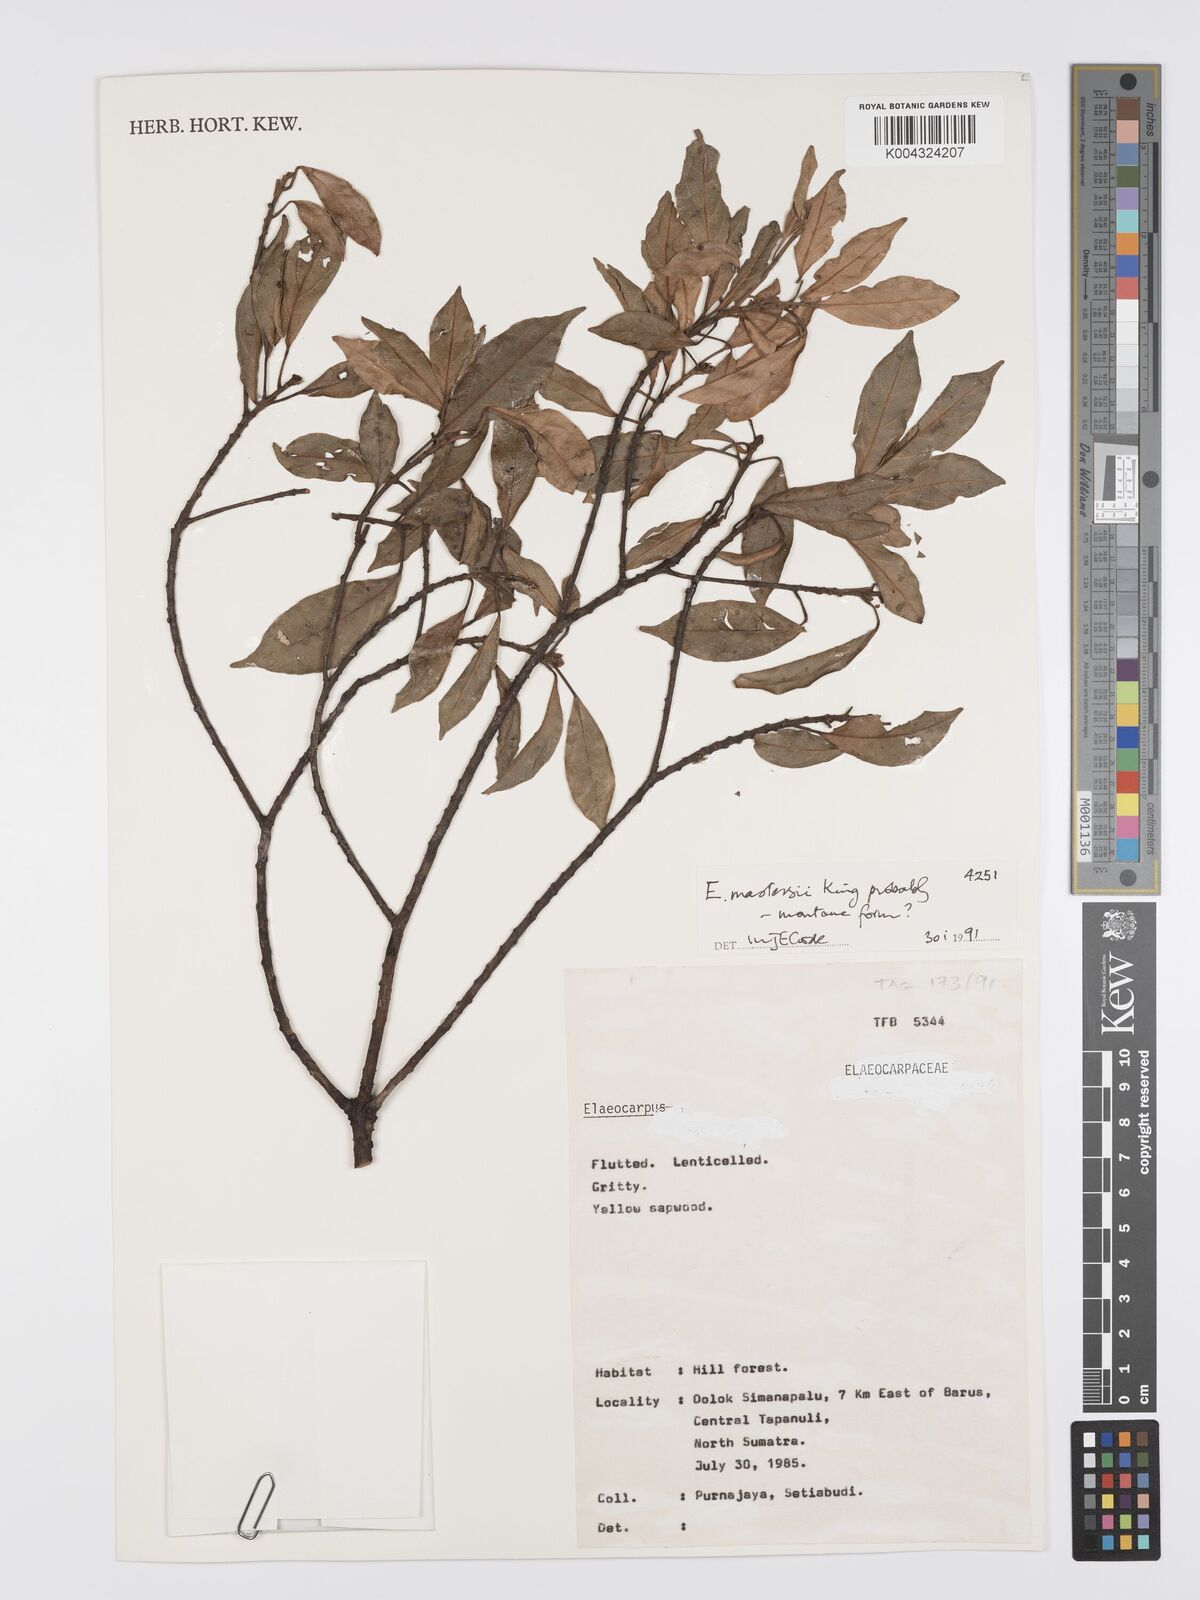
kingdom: Plantae
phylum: Tracheophyta
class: Magnoliopsida
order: Oxalidales
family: Elaeocarpaceae
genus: Elaeocarpus
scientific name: Elaeocarpus mastersii
